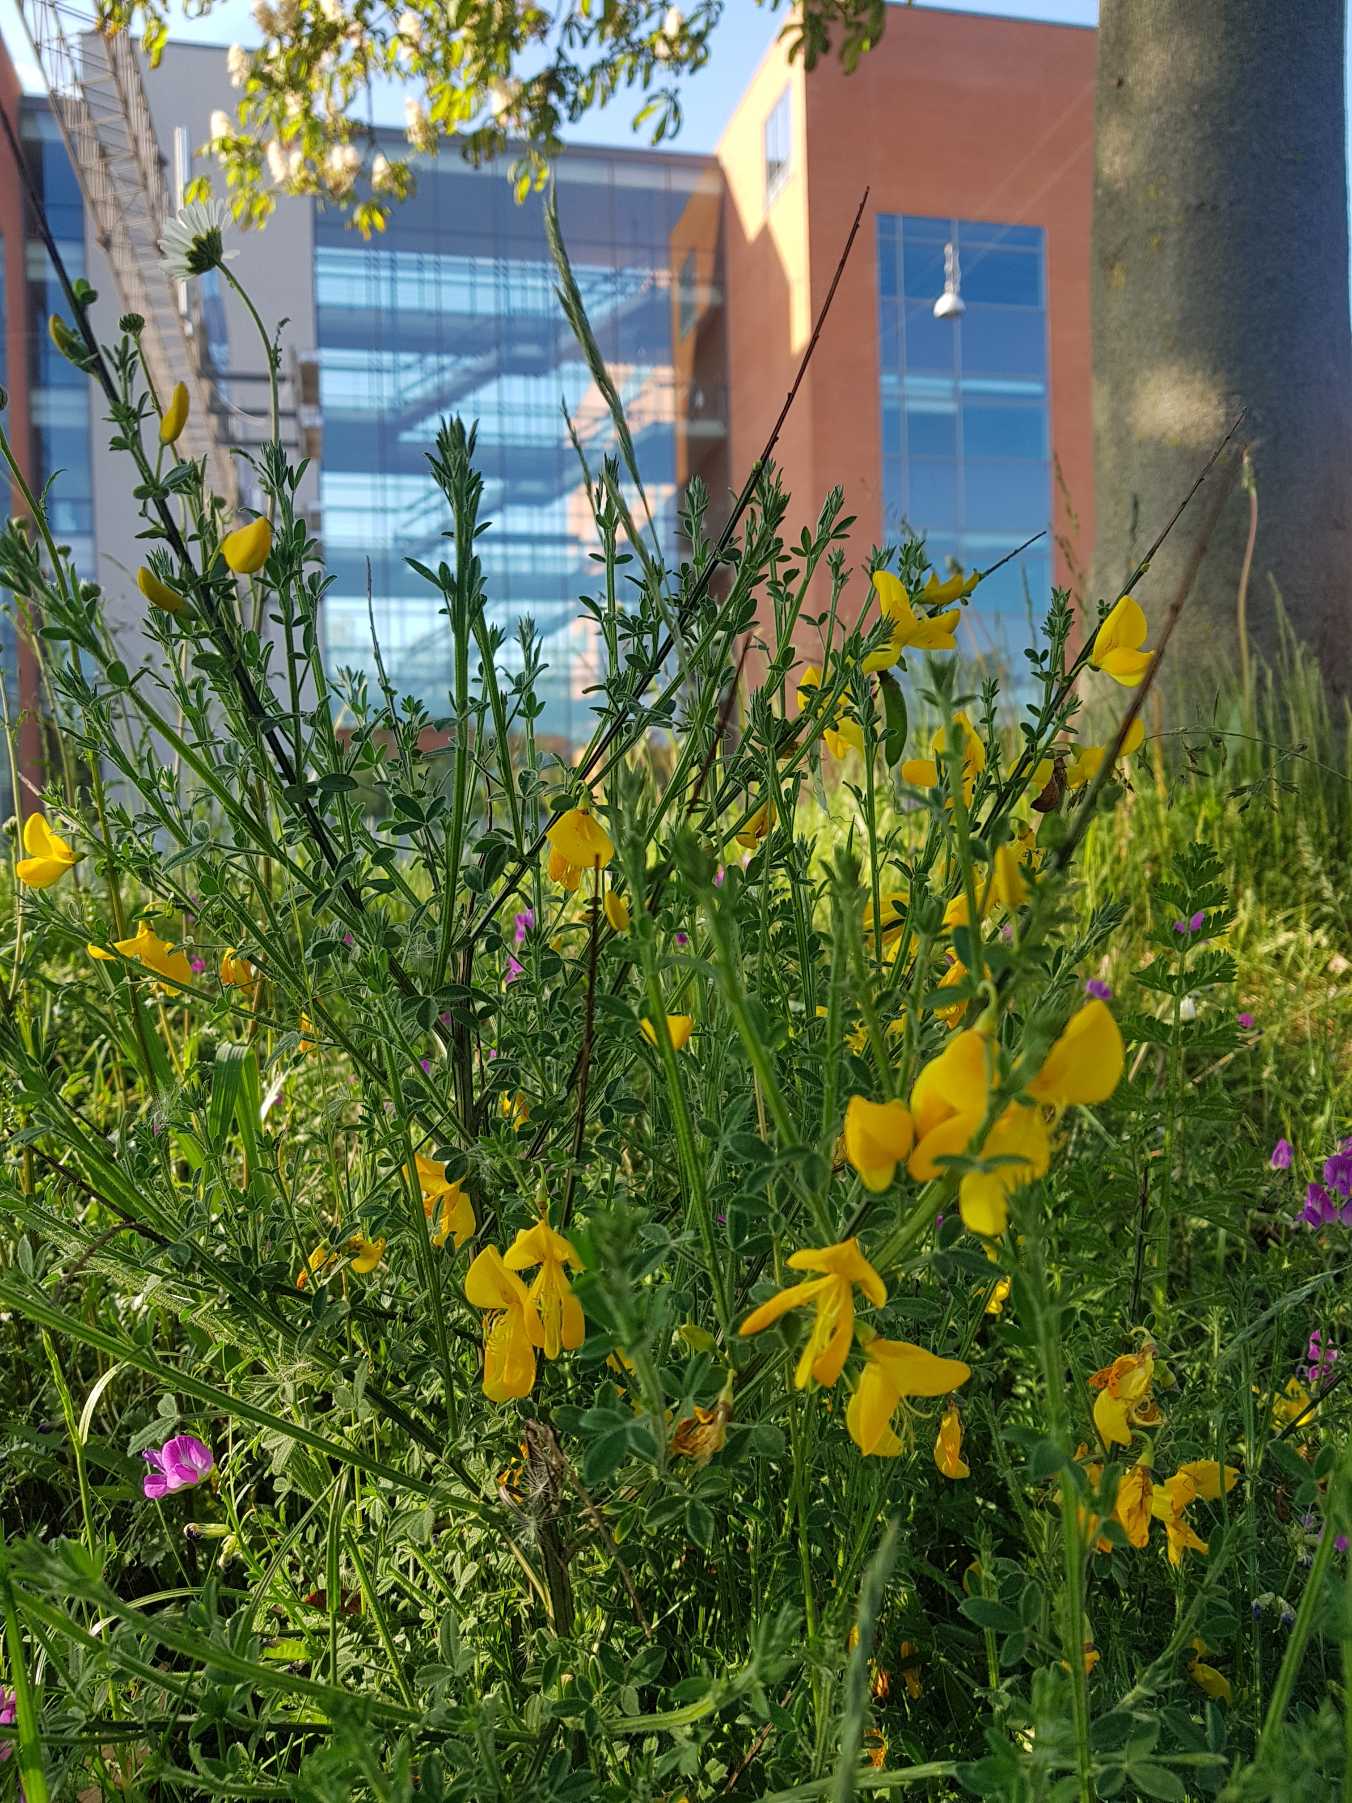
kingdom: Plantae
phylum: Tracheophyta
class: Magnoliopsida
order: Fabales
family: Fabaceae
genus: Cytisus
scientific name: Cytisus scoparius
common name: Almindelig gyvel
